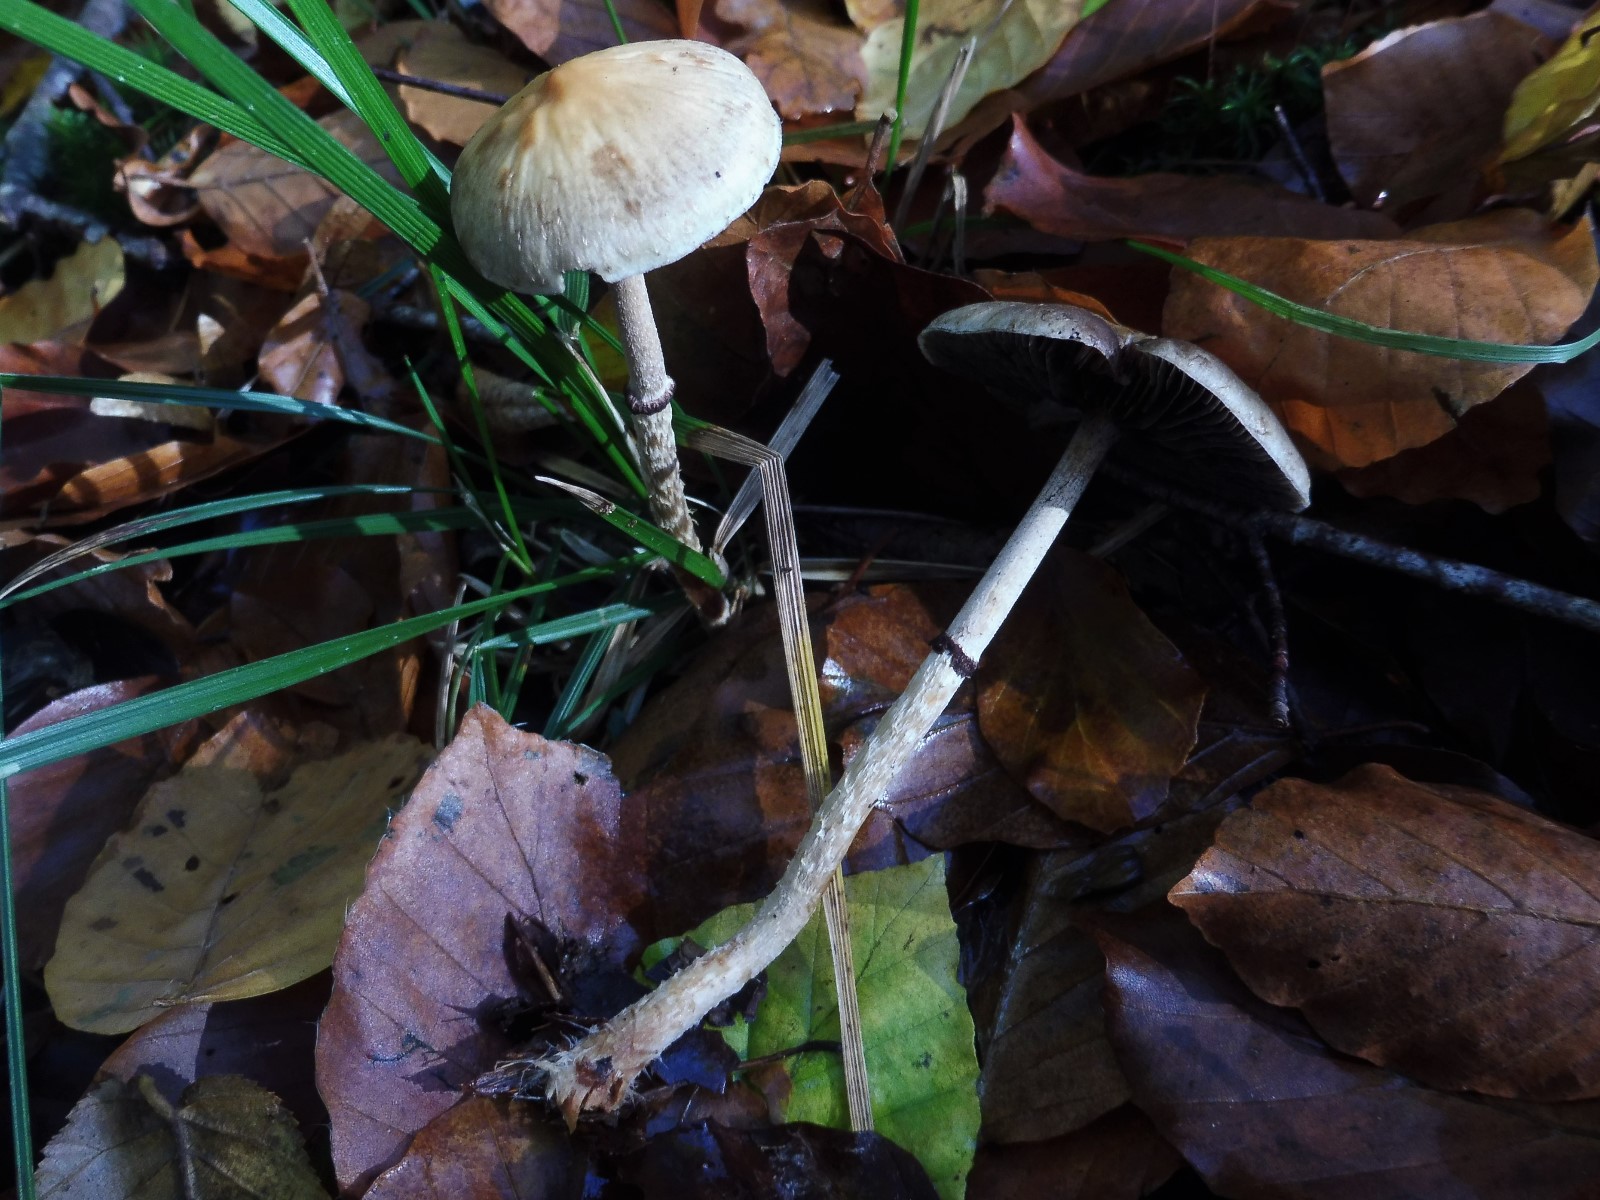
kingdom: Fungi
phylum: Basidiomycota
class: Agaricomycetes
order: Agaricales
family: Strophariaceae
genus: Leratiomyces
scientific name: Leratiomyces squamosus
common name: skællet bredblad
